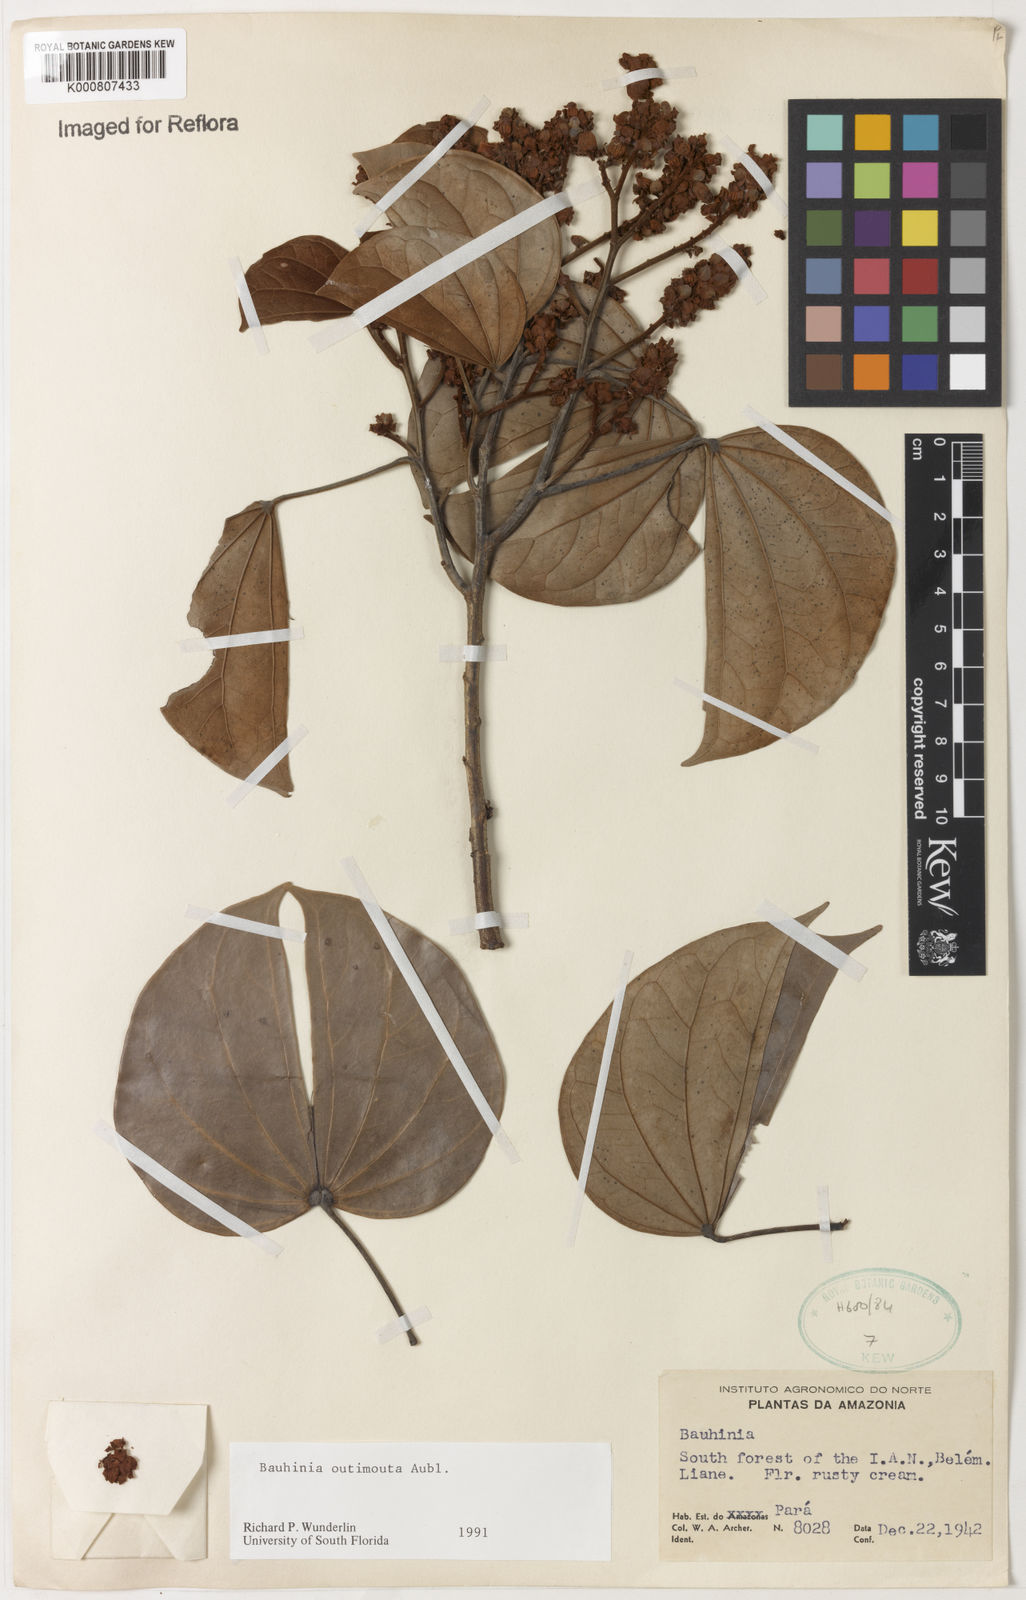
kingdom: Plantae
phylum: Tracheophyta
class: Magnoliopsida
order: Fabales
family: Fabaceae
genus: Schnella
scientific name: Schnella outimouta
